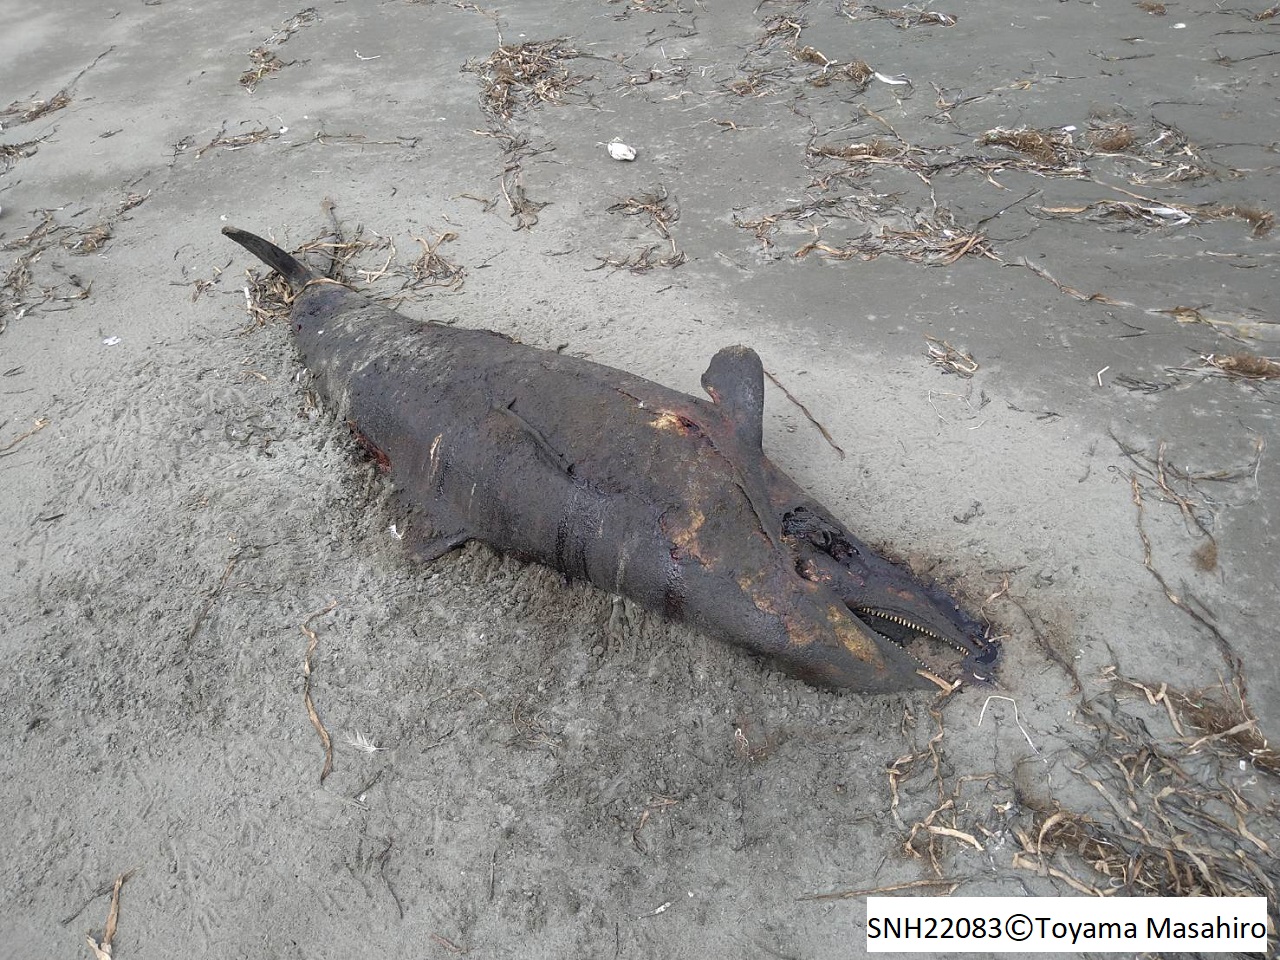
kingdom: Animalia
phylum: Chordata
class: Mammalia
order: Cetacea
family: Delphinidae
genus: Lagenorhynchus
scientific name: Lagenorhynchus obliquidens
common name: Pacific white-sided dolphin
